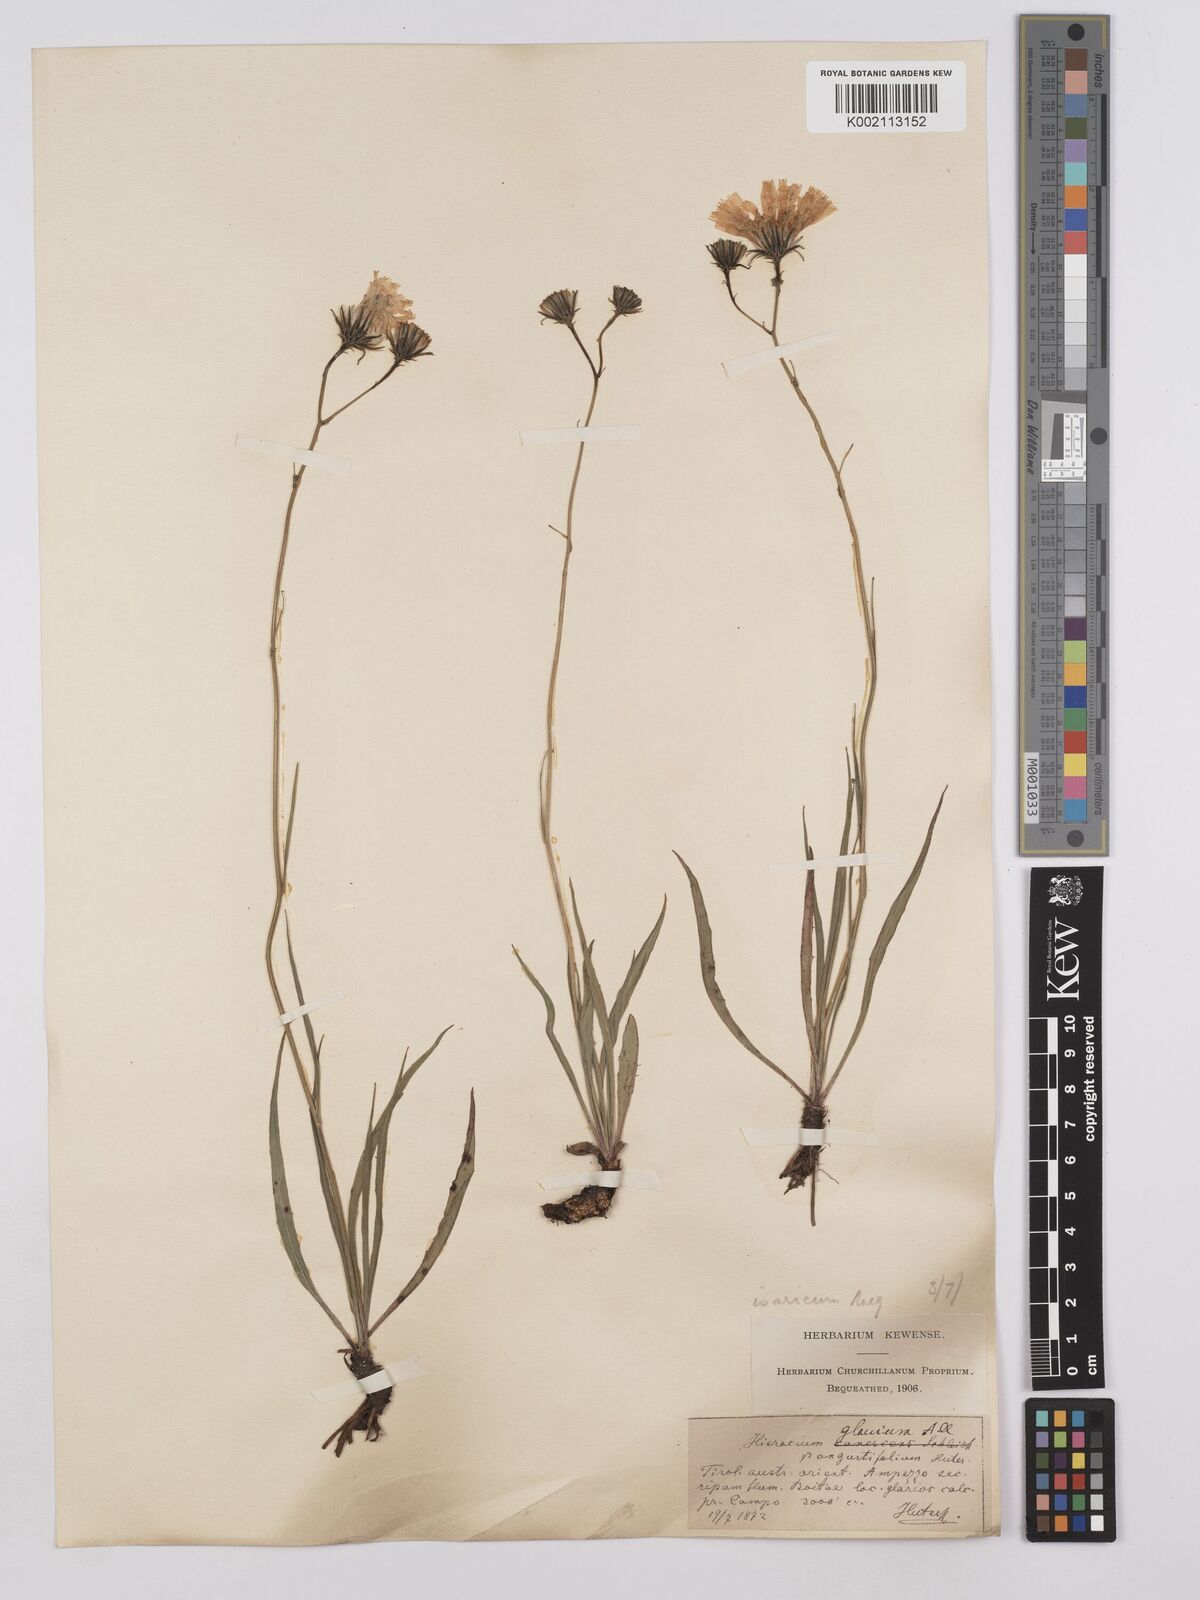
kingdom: Plantae
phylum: Tracheophyta
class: Magnoliopsida
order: Asterales
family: Asteraceae
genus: Hieracium
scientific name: Hieracium glaucum
